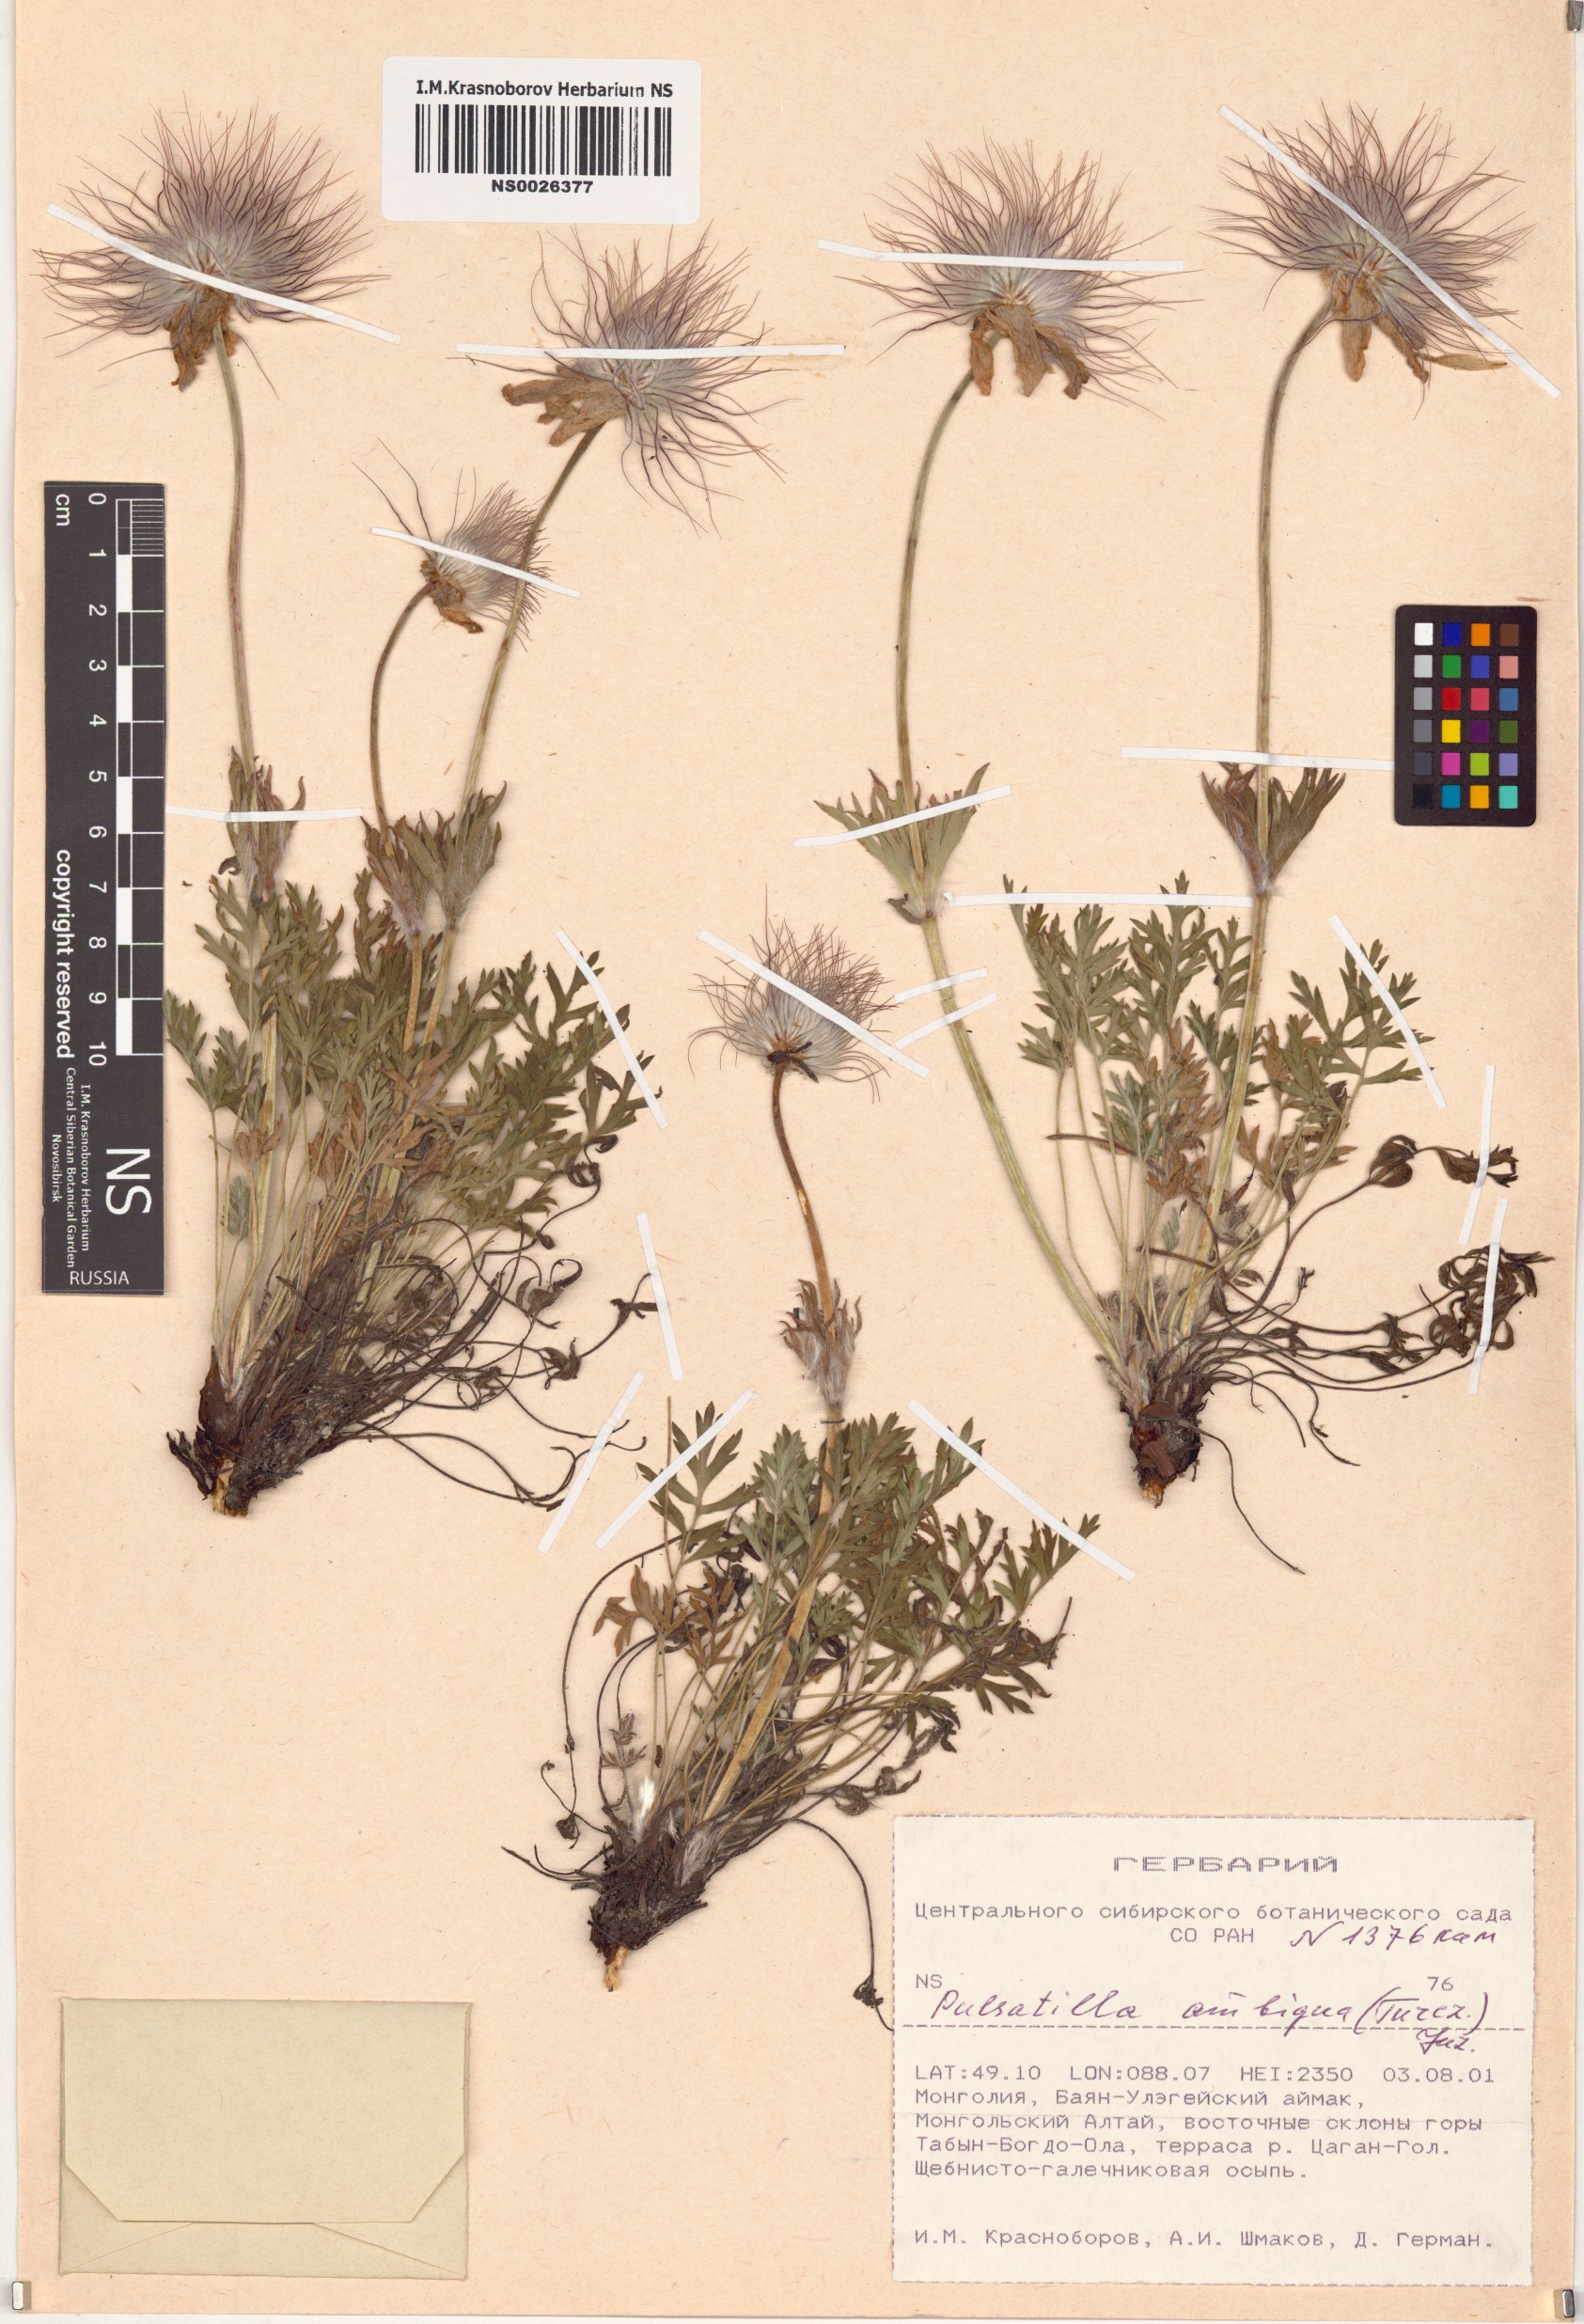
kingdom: Plantae
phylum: Tracheophyta
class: Magnoliopsida
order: Ranunculales
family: Ranunculaceae
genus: Pulsatilla
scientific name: Pulsatilla ambigua
